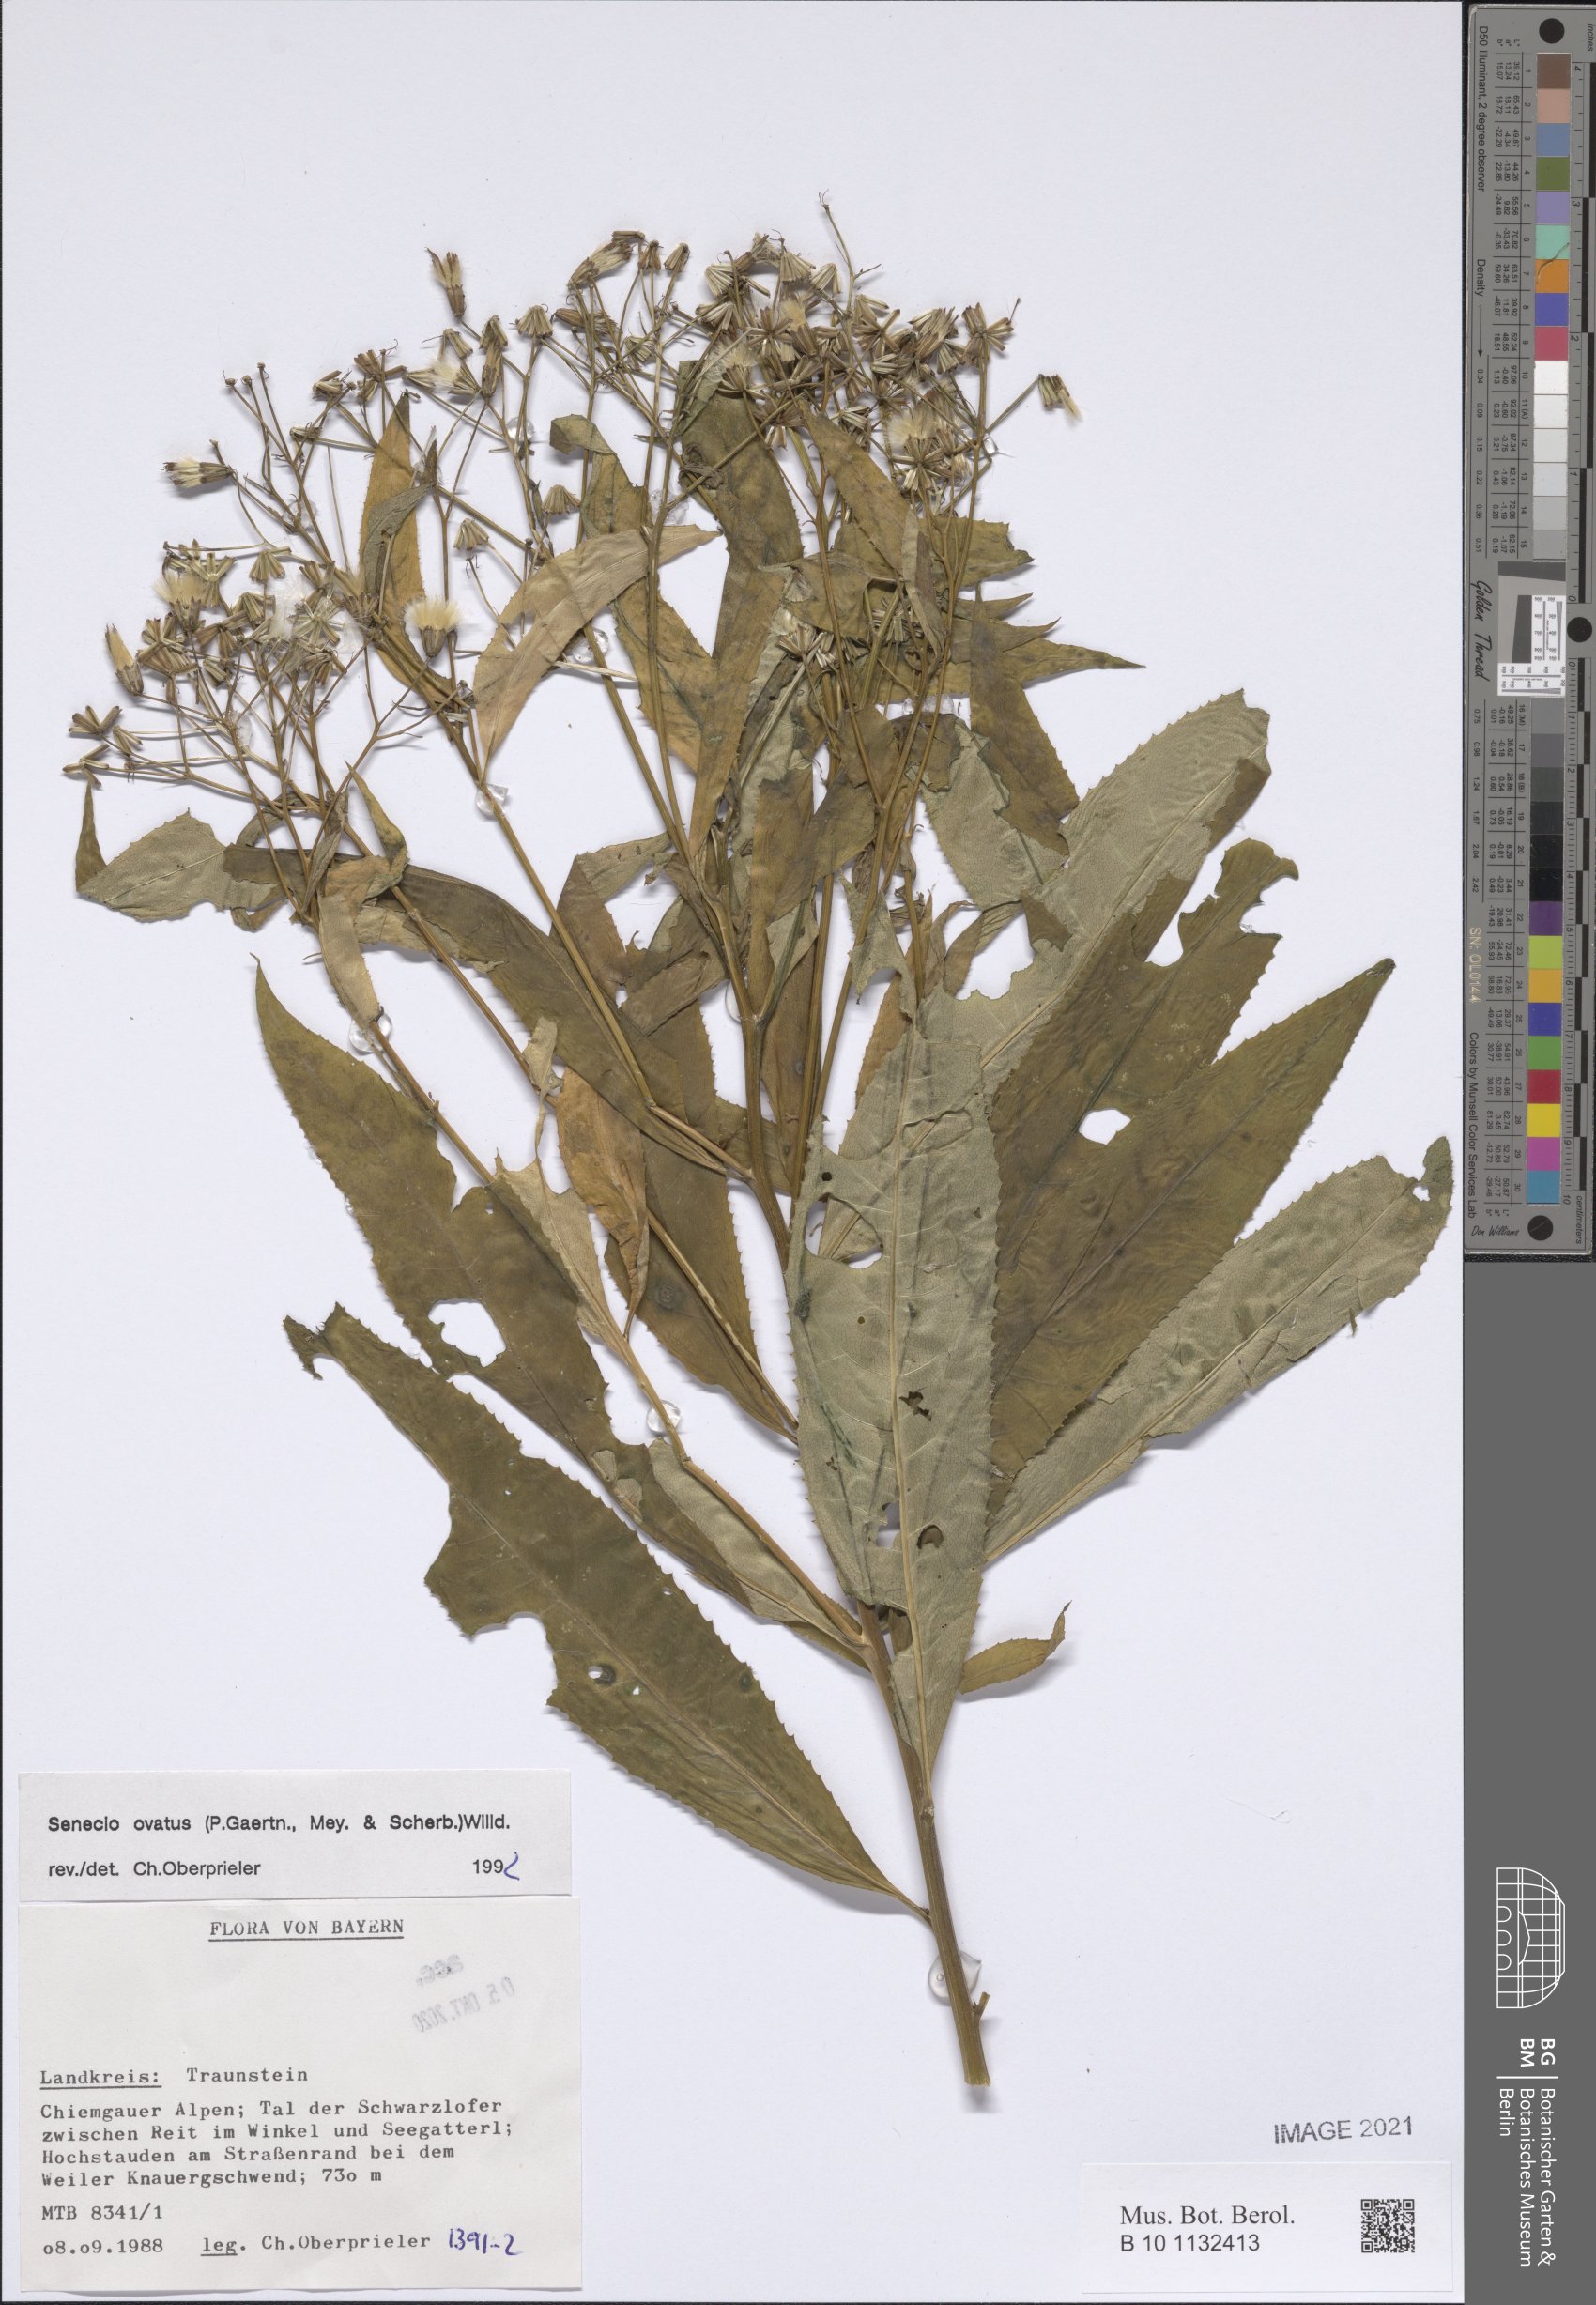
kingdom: Plantae
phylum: Tracheophyta
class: Magnoliopsida
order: Asterales
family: Asteraceae
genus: Senecio
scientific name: Senecio ovatus
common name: Wood ragwort
